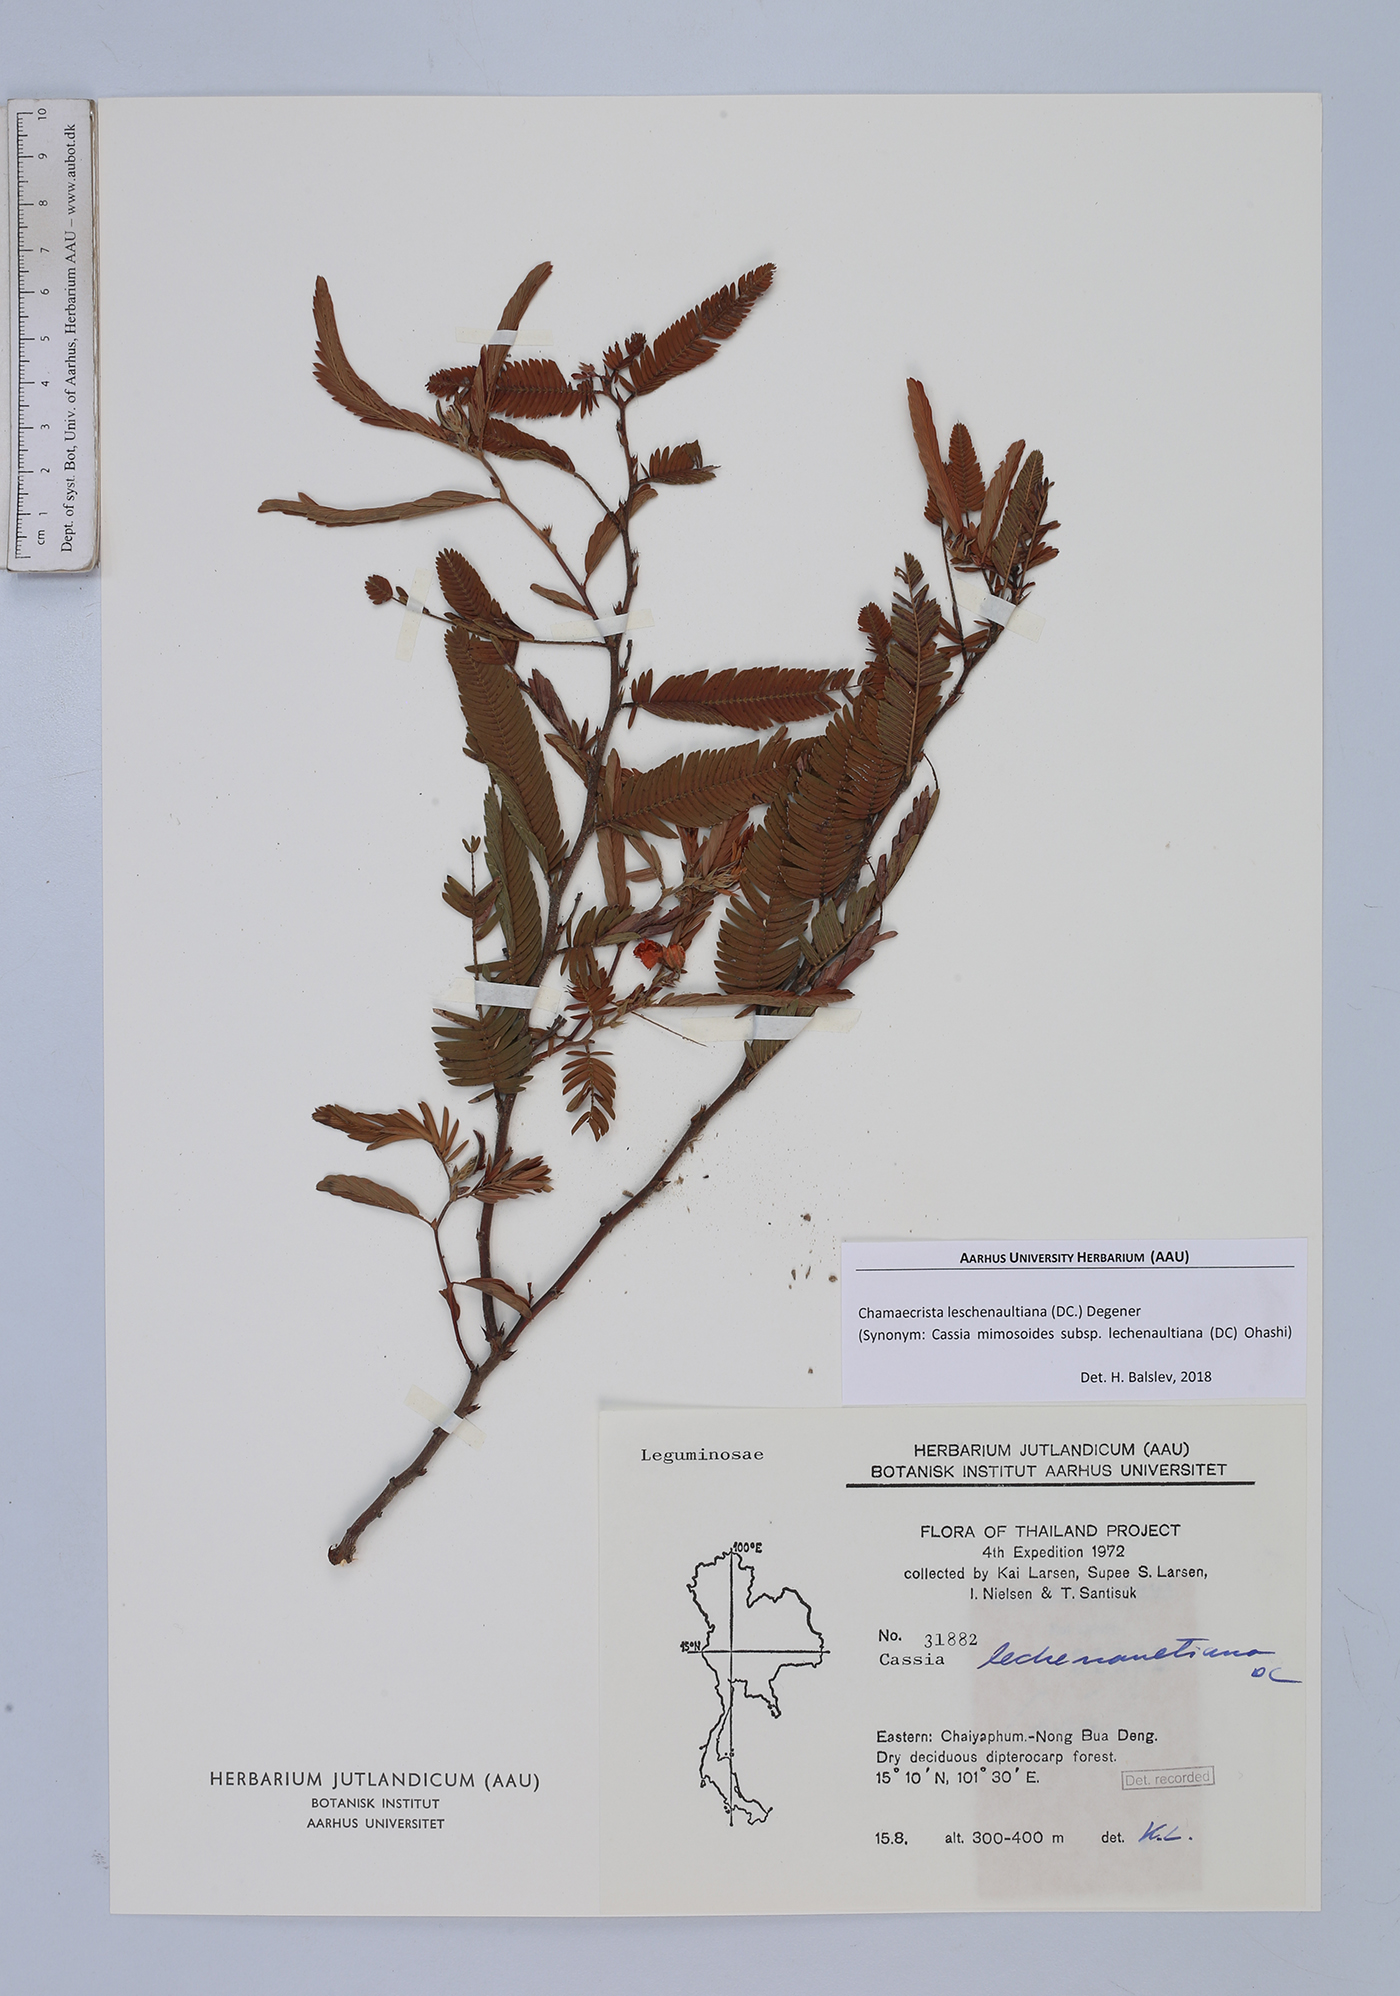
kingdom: Plantae
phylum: Tracheophyta
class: Magnoliopsida
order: Fabales
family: Fabaceae
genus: Chamaecrista
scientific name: Chamaecrista nictitans
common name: Sensitive cassia
